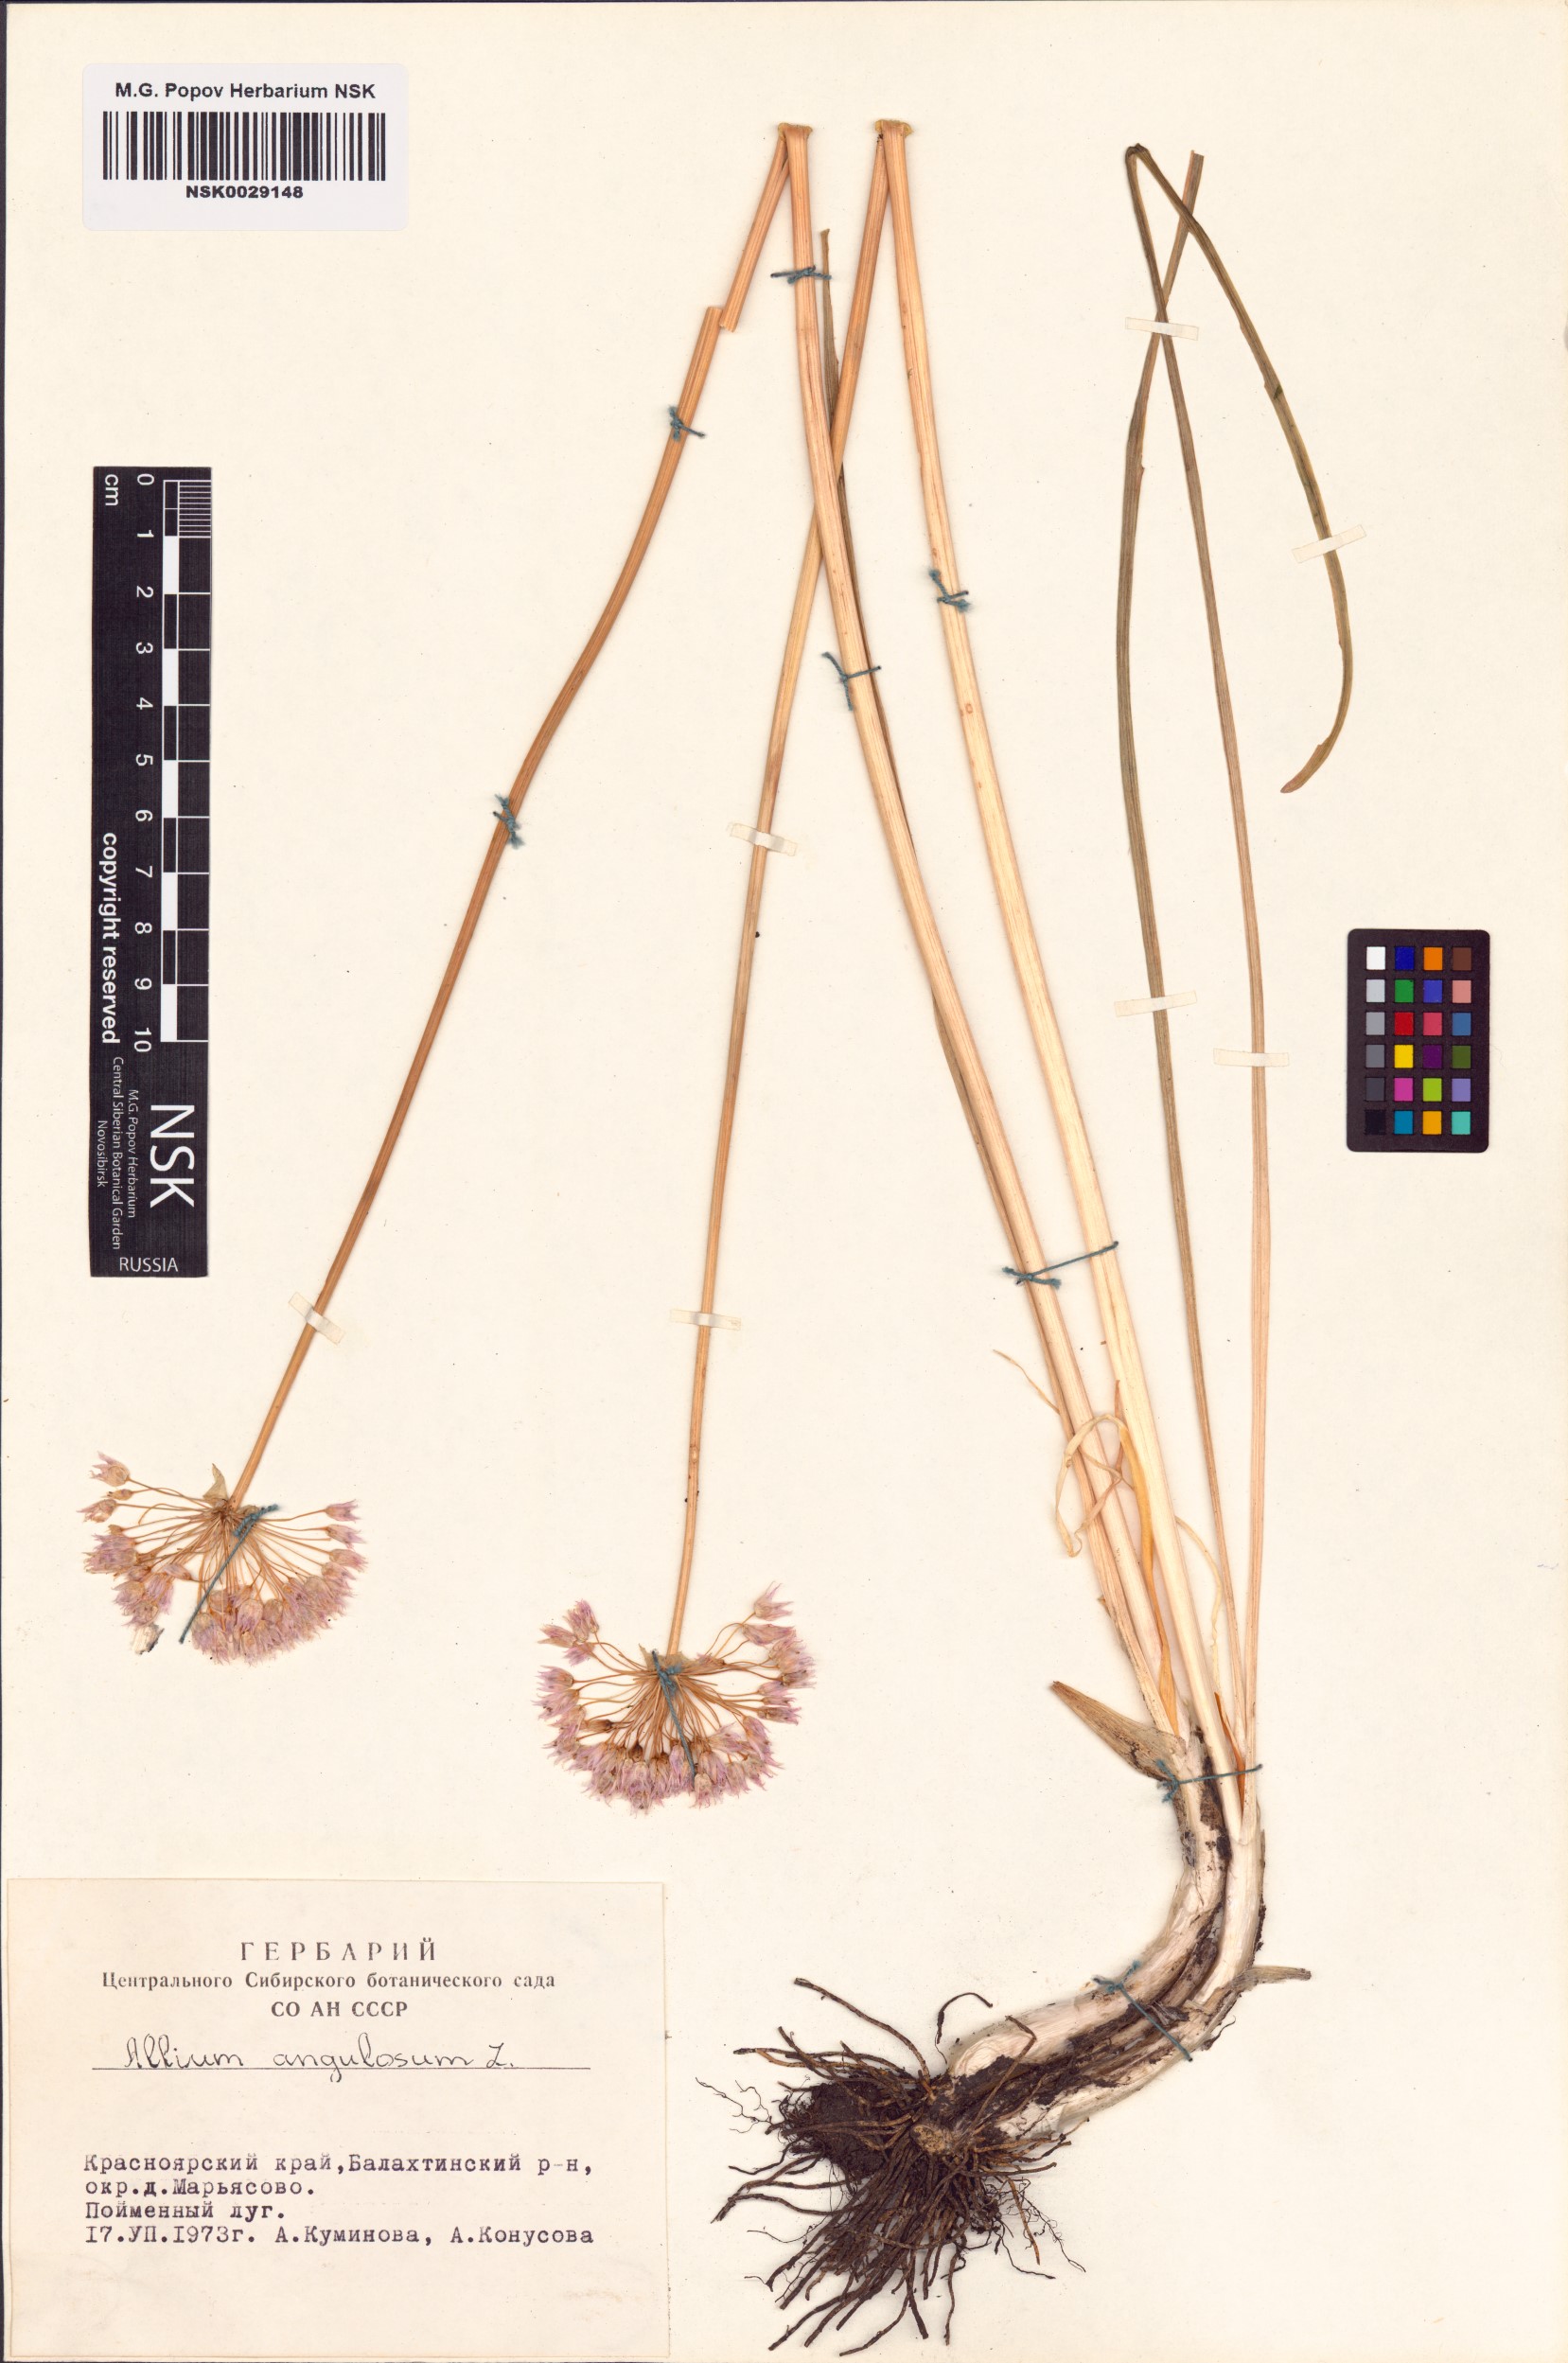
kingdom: Plantae
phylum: Tracheophyta
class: Liliopsida
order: Asparagales
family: Amaryllidaceae
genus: Allium
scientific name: Allium angulosum
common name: Mouse garlic
